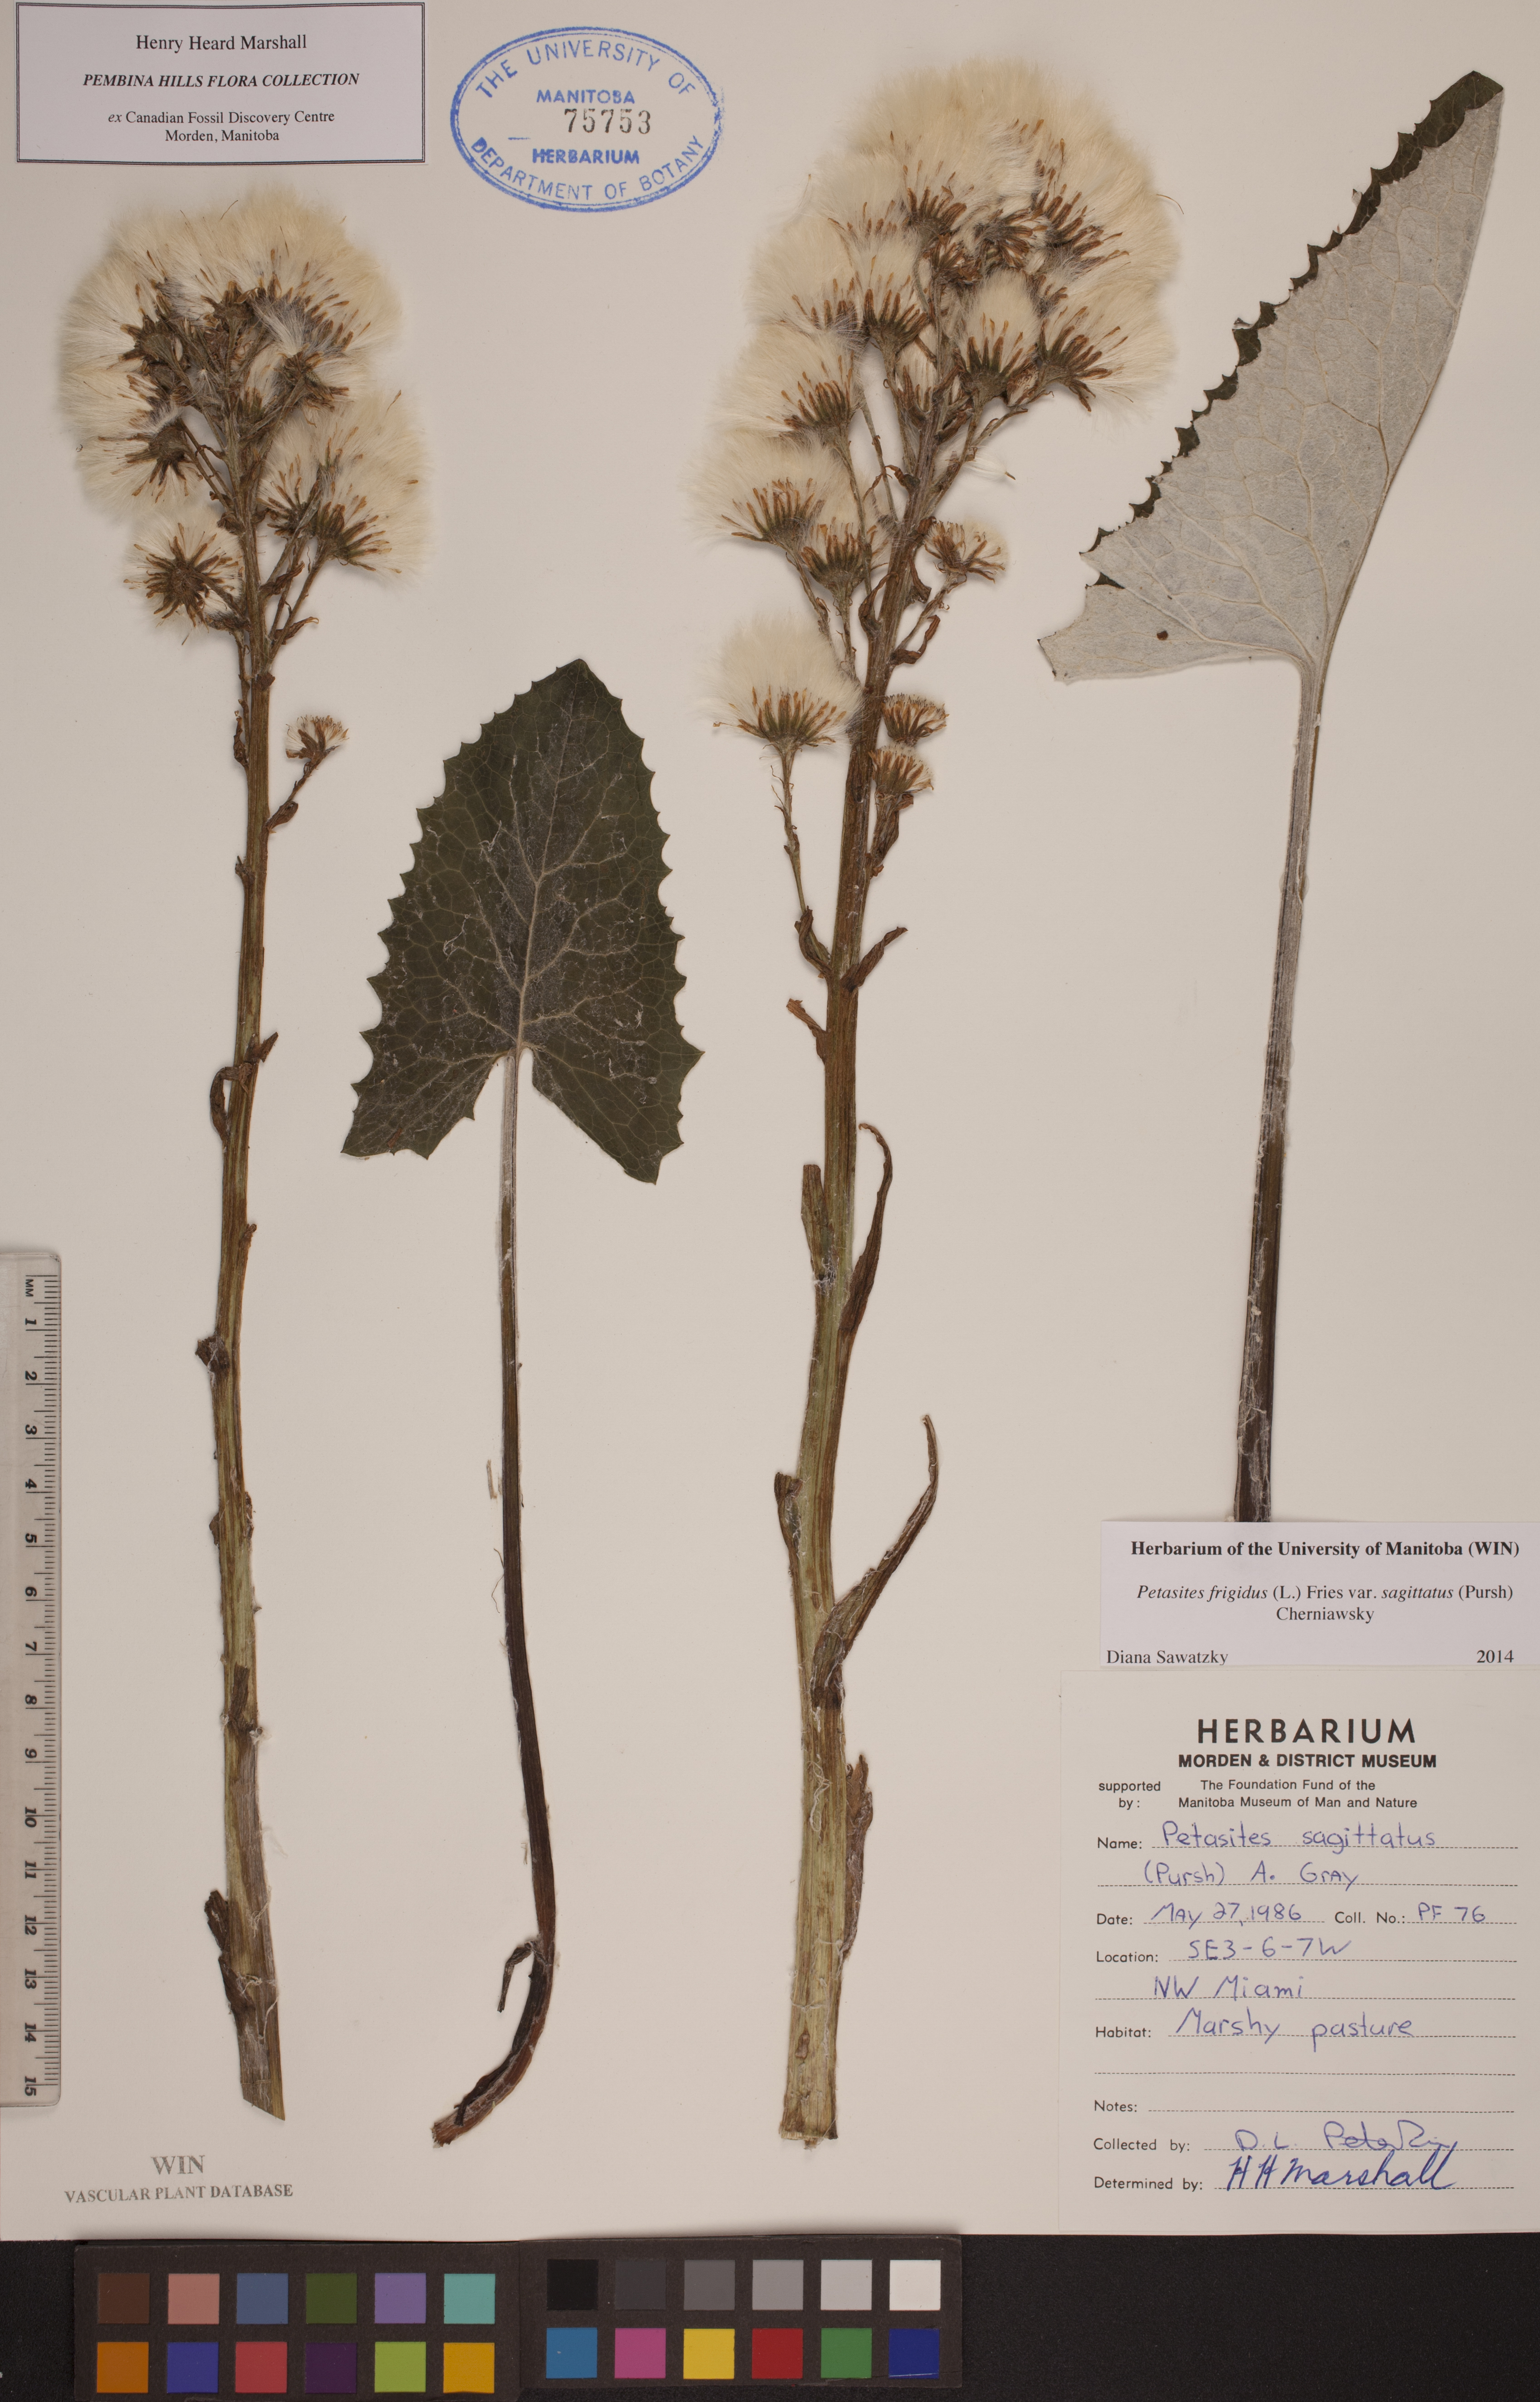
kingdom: Plantae
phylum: Tracheophyta
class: Magnoliopsida
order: Asterales
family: Asteraceae
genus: Petasites
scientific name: Petasites frigidus
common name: Arctic butterbur
